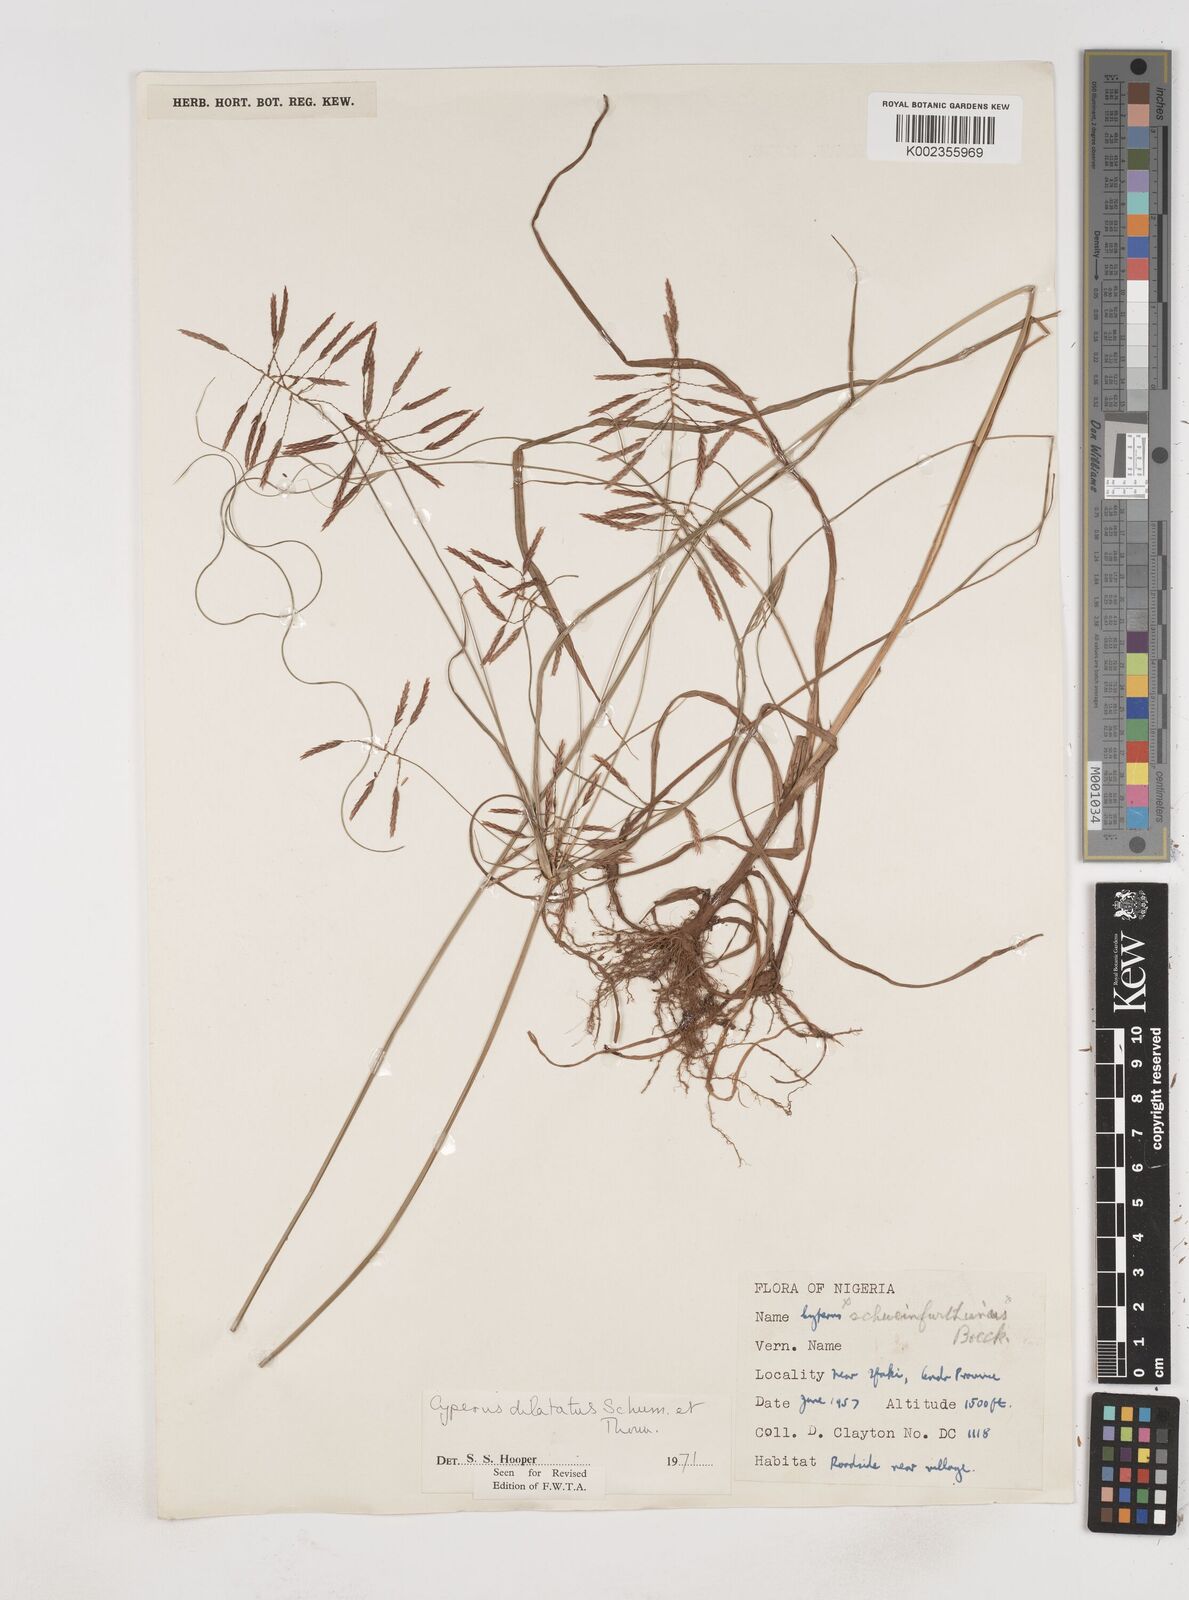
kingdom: Plantae
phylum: Tracheophyta
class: Liliopsida
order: Poales
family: Cyperaceae
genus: Cyperus
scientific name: Cyperus dilatatus
